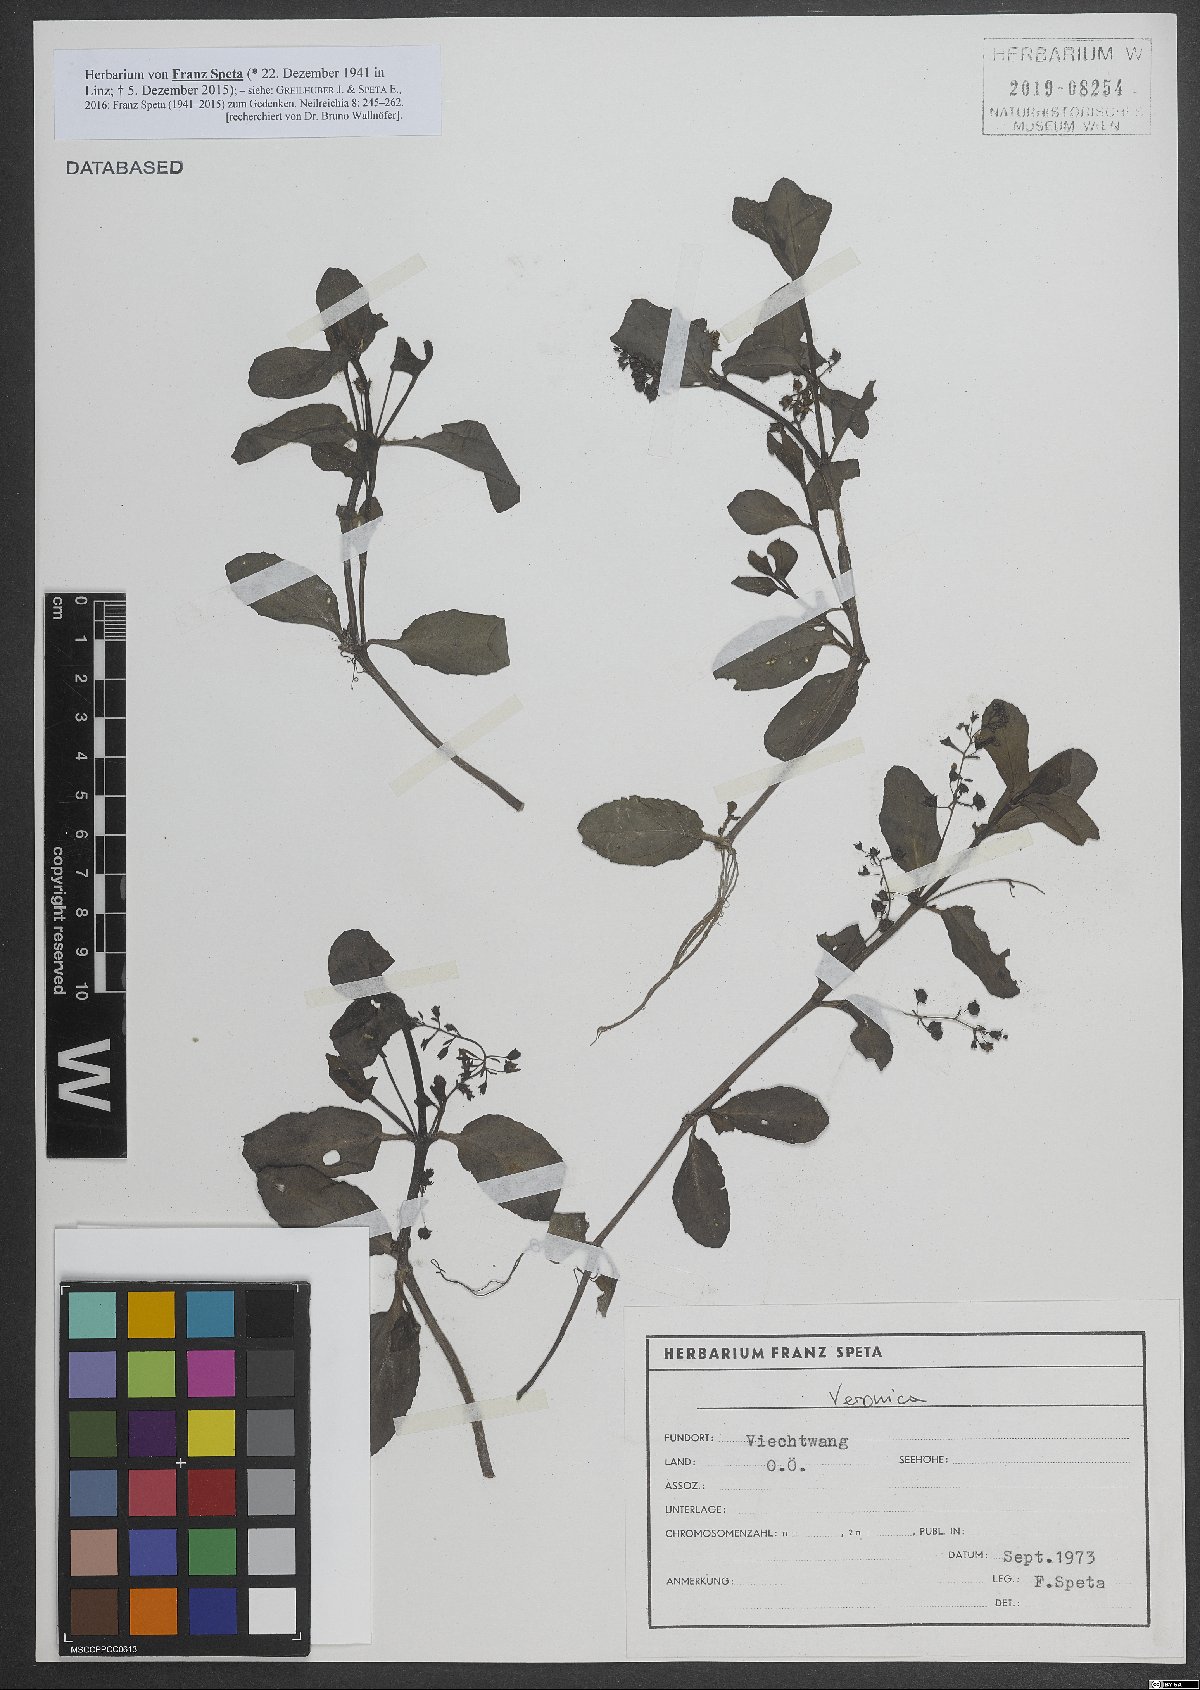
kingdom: Plantae
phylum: Tracheophyta
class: Magnoliopsida
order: Lamiales
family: Plantaginaceae
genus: Veronica
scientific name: Veronica
